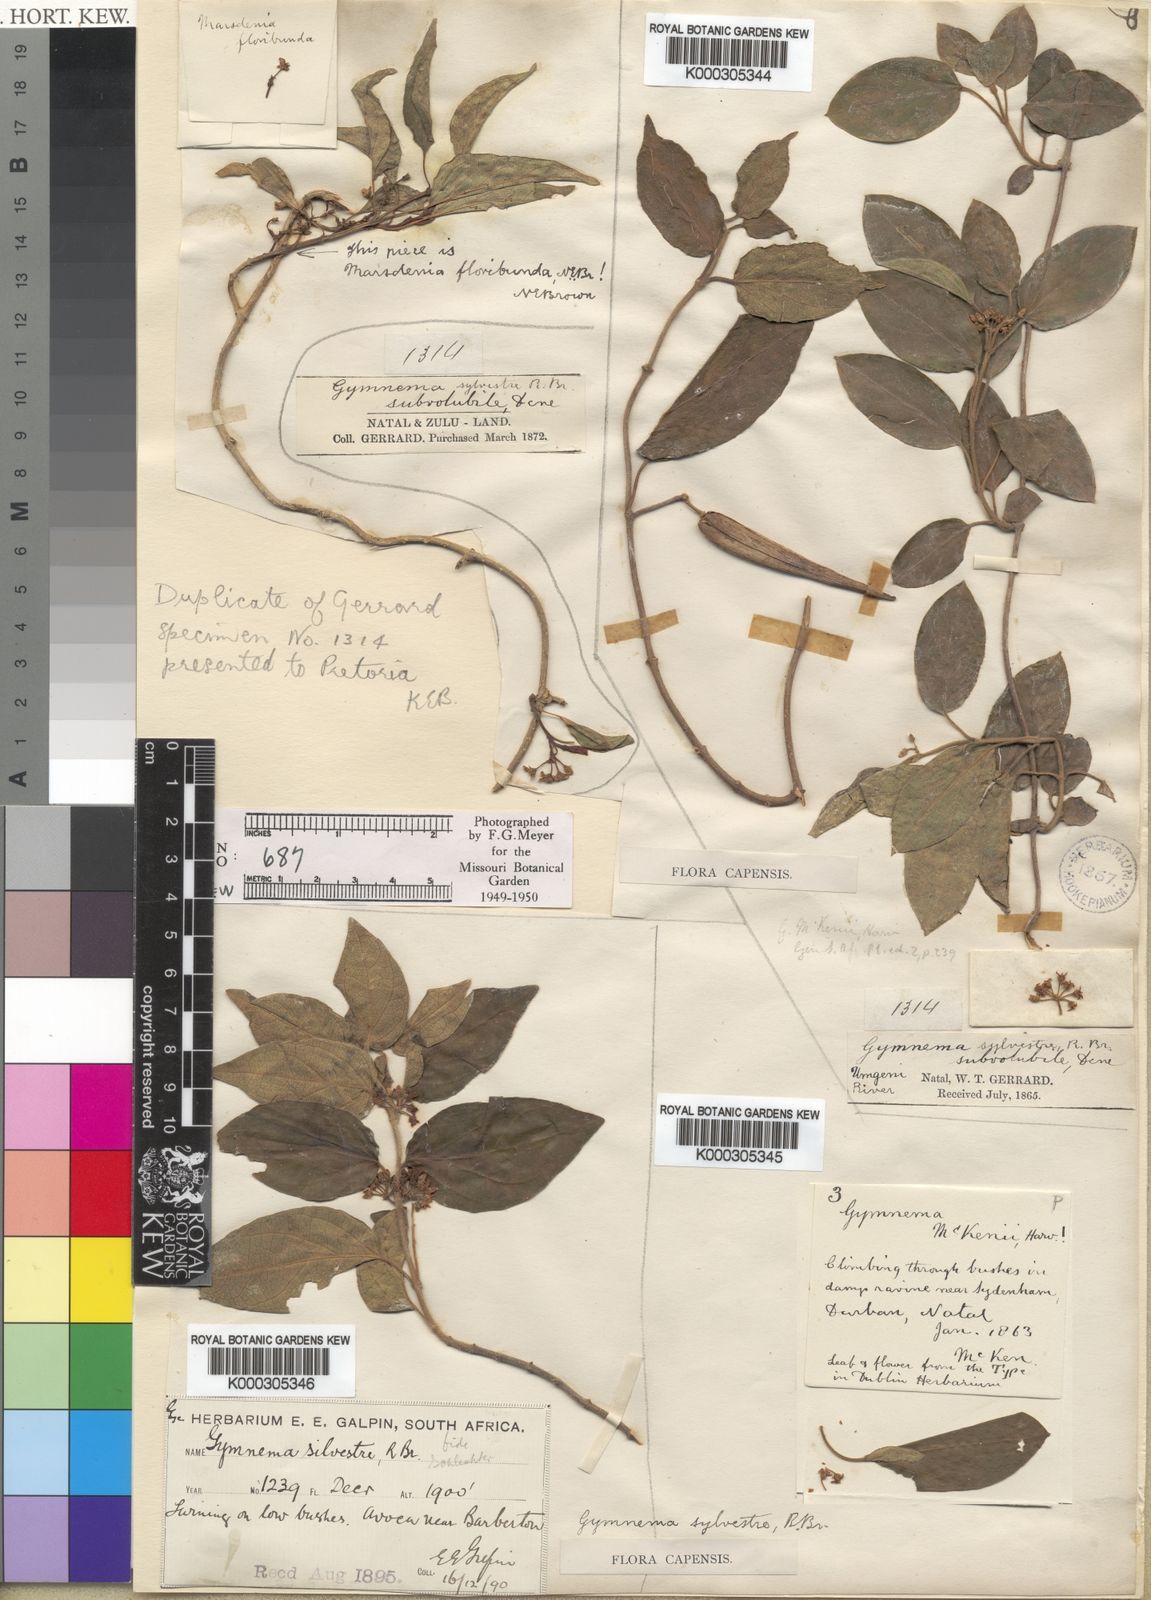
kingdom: Plantae
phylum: Tracheophyta
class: Magnoliopsida
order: Gentianales
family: Apocynaceae
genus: Gymnema
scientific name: Gymnema
